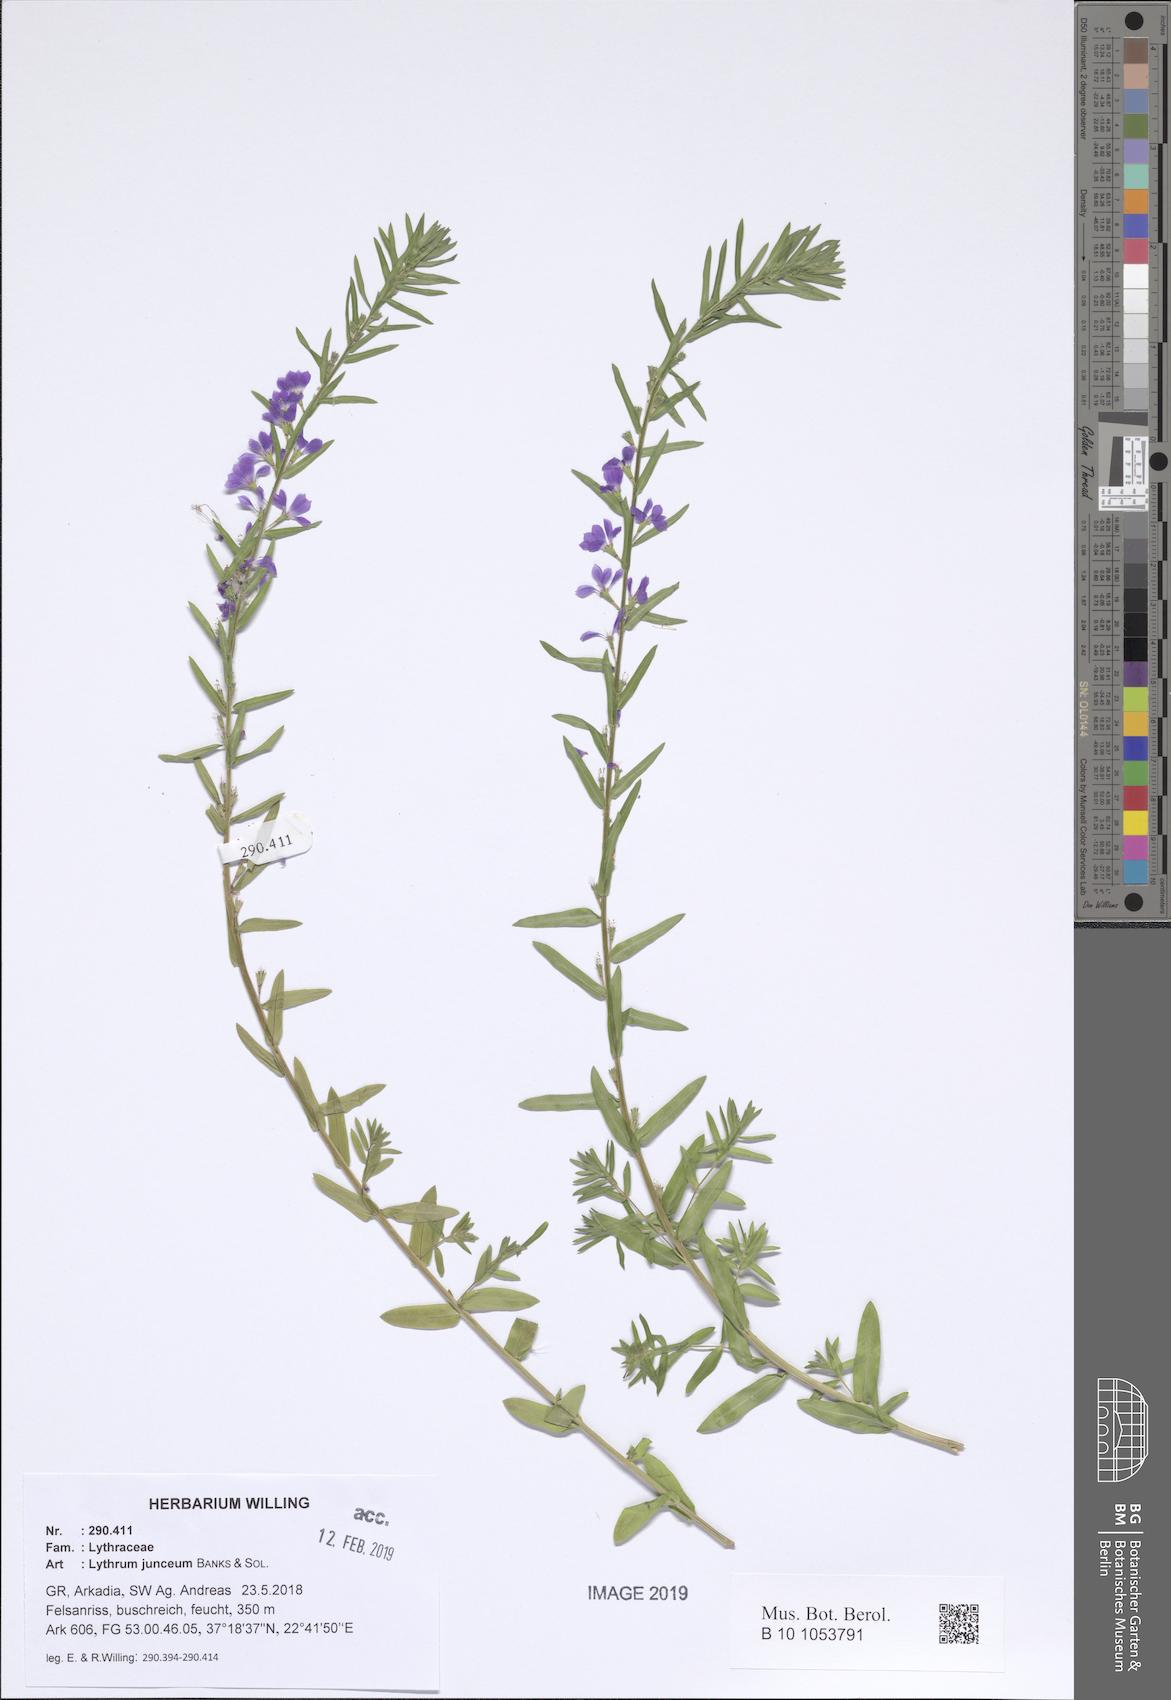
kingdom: Plantae
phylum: Tracheophyta
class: Magnoliopsida
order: Myrtales
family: Lythraceae
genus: Lythrum
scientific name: Lythrum junceum
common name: False grass-poly
